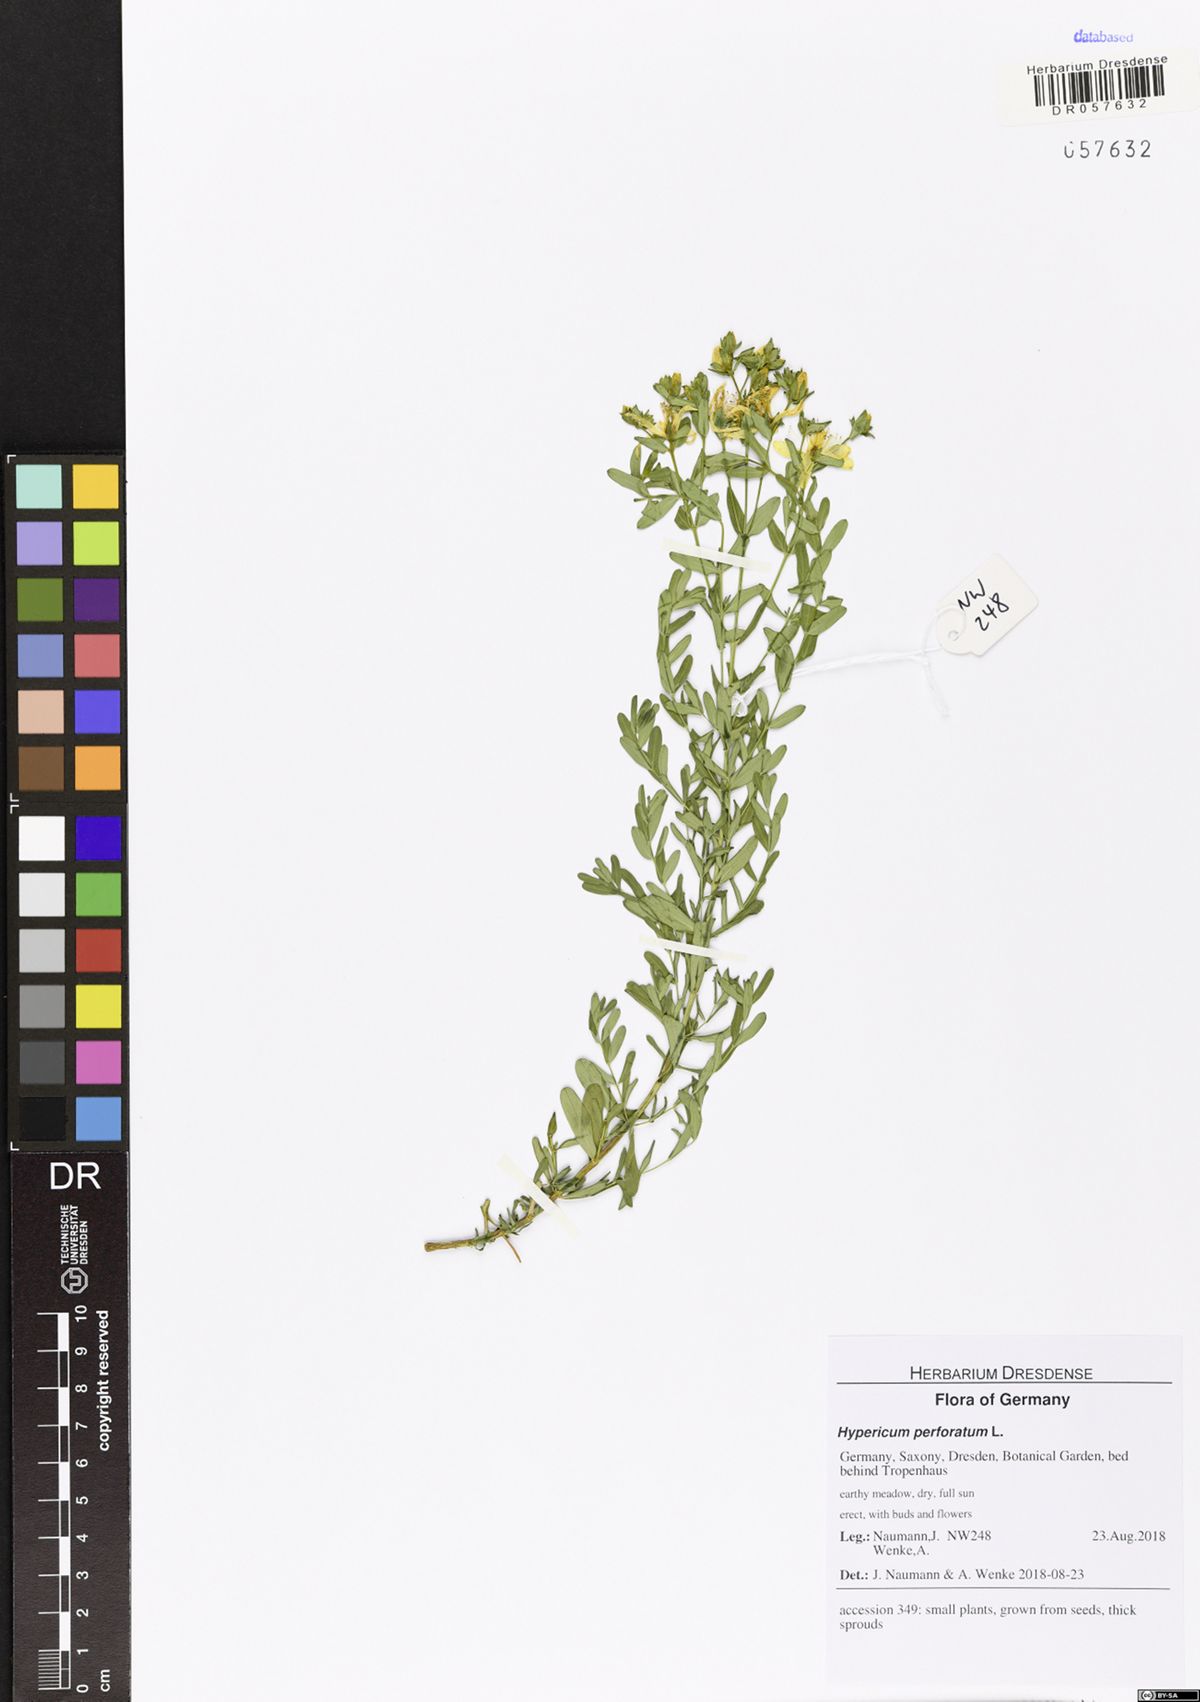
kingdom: Plantae
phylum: Tracheophyta
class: Magnoliopsida
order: Malpighiales
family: Hypericaceae
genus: Hypericum
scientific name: Hypericum perforatum
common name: Common st. johnswort
